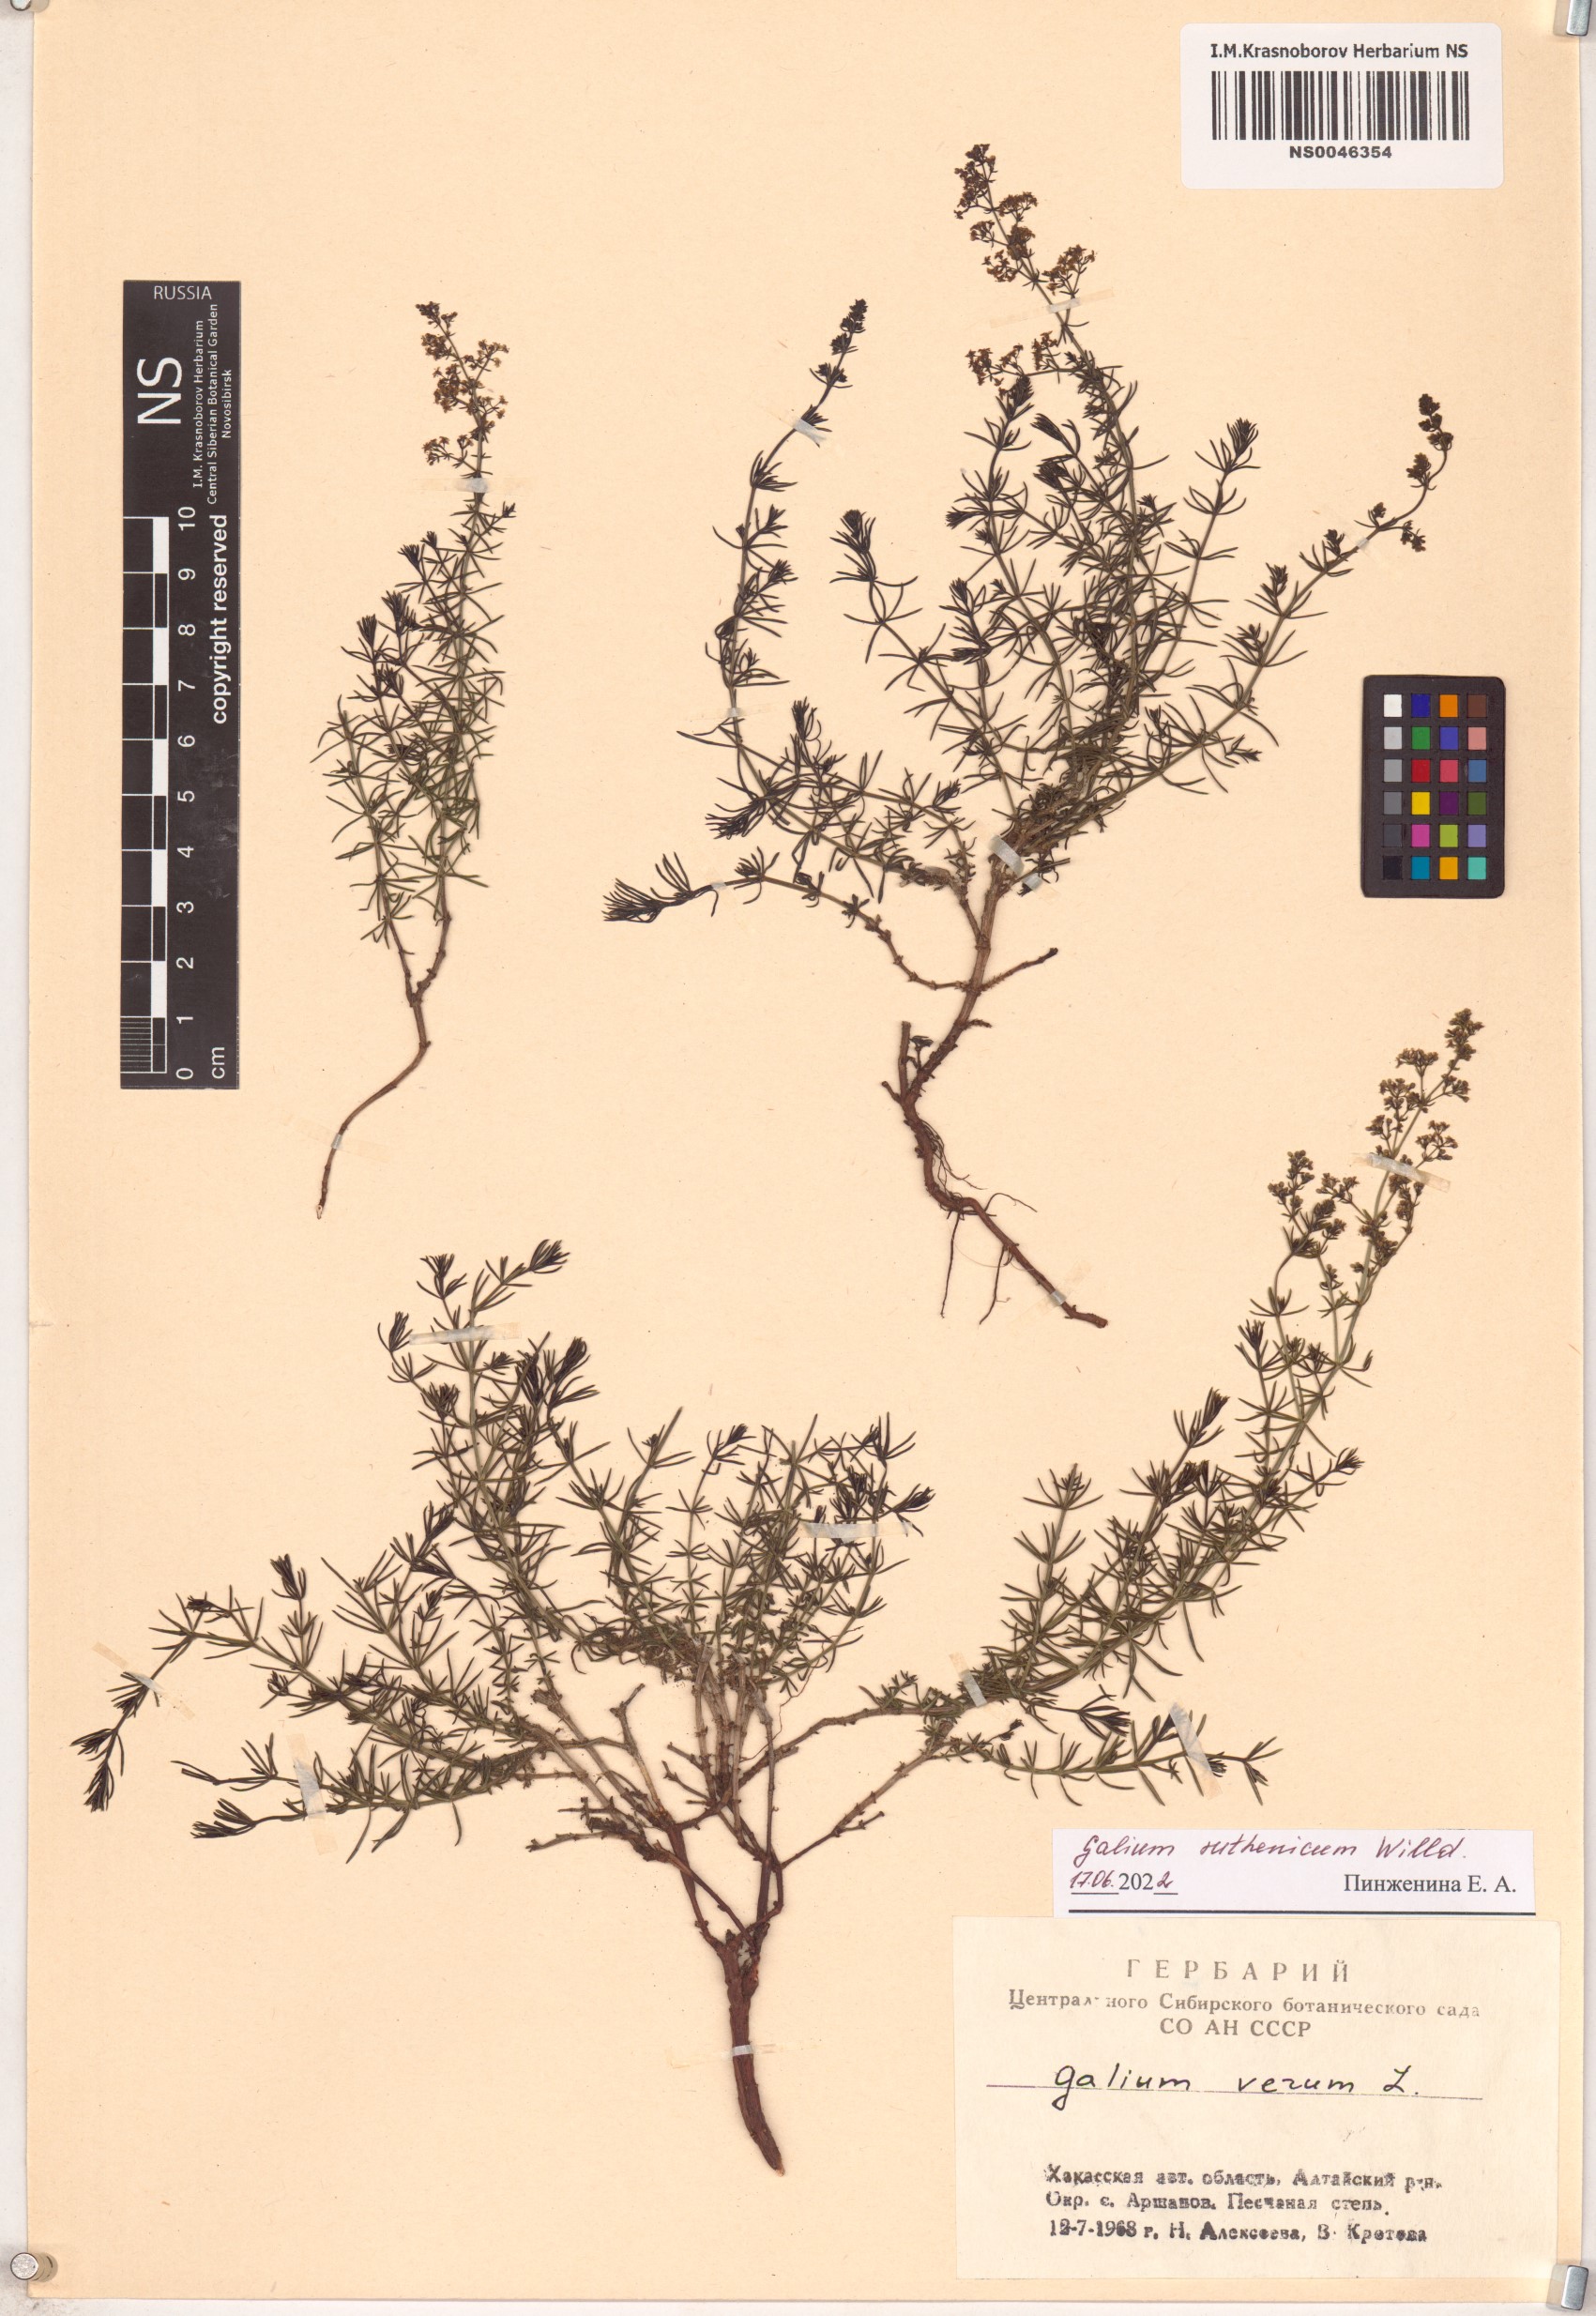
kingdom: Plantae
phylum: Tracheophyta
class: Magnoliopsida
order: Gentianales
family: Rubiaceae
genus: Galium
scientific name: Galium verum
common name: Lady's bedstraw
